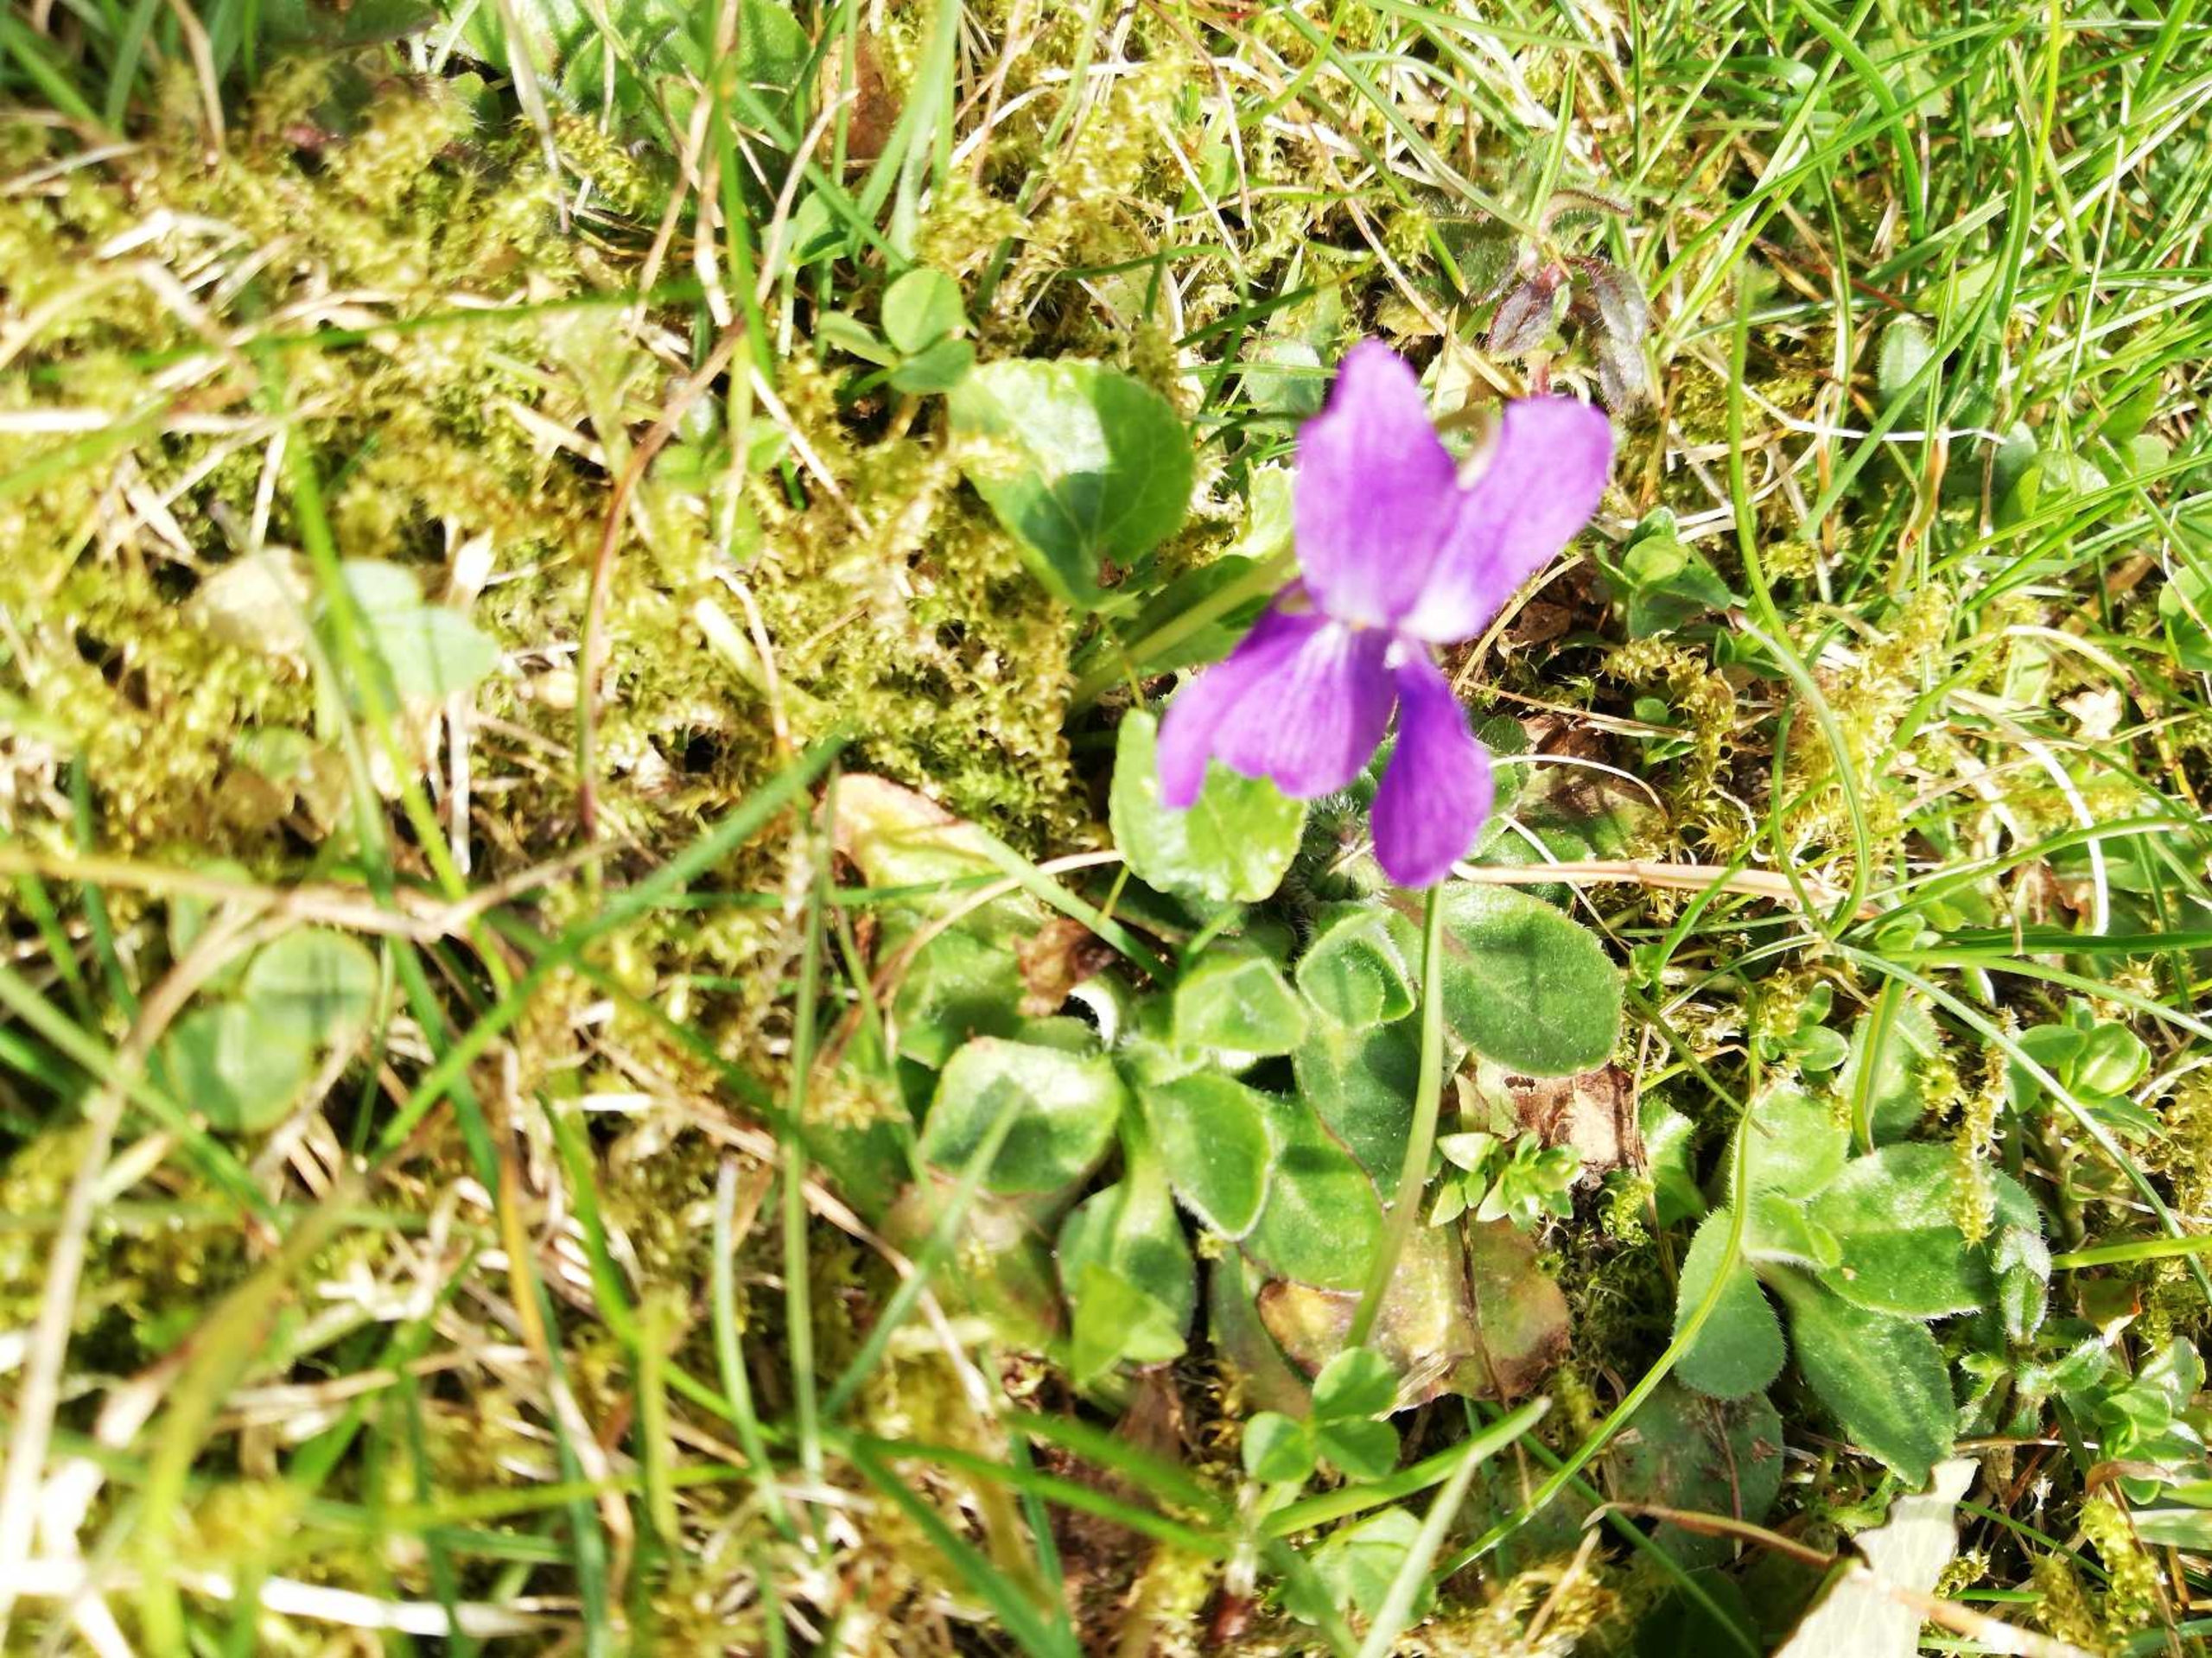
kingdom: Plantae
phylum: Tracheophyta
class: Magnoliopsida
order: Malpighiales
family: Violaceae
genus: Viola
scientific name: Viola odorata
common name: Marts-viol
